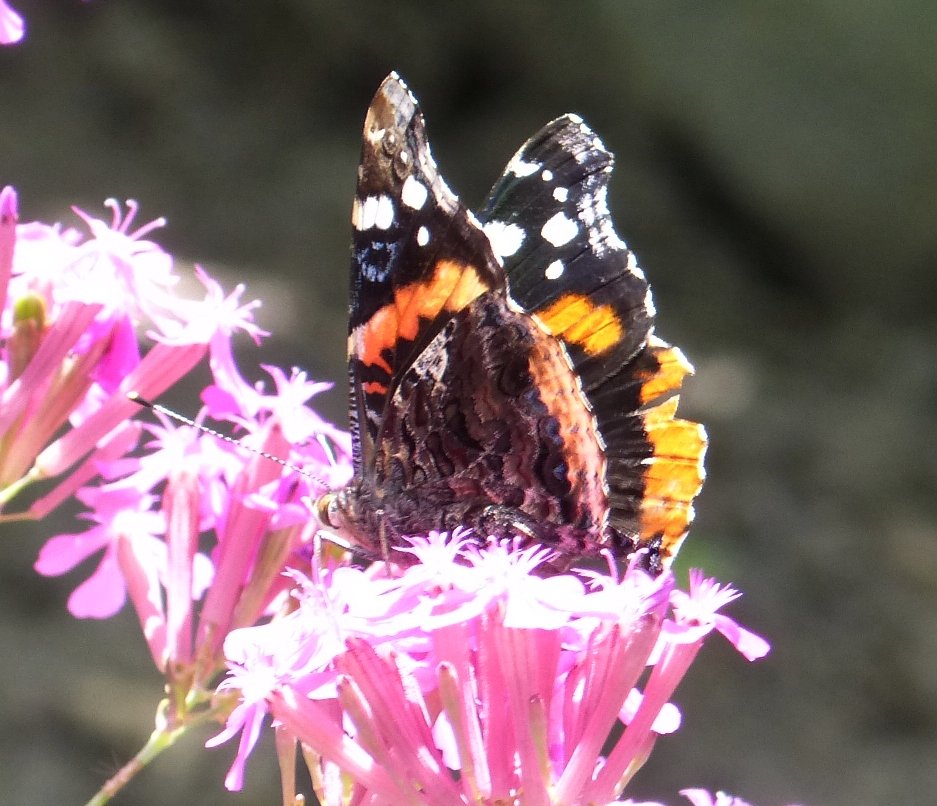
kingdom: Animalia
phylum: Arthropoda
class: Insecta
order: Lepidoptera
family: Nymphalidae
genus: Vanessa
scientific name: Vanessa atalanta
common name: Red Admiral
